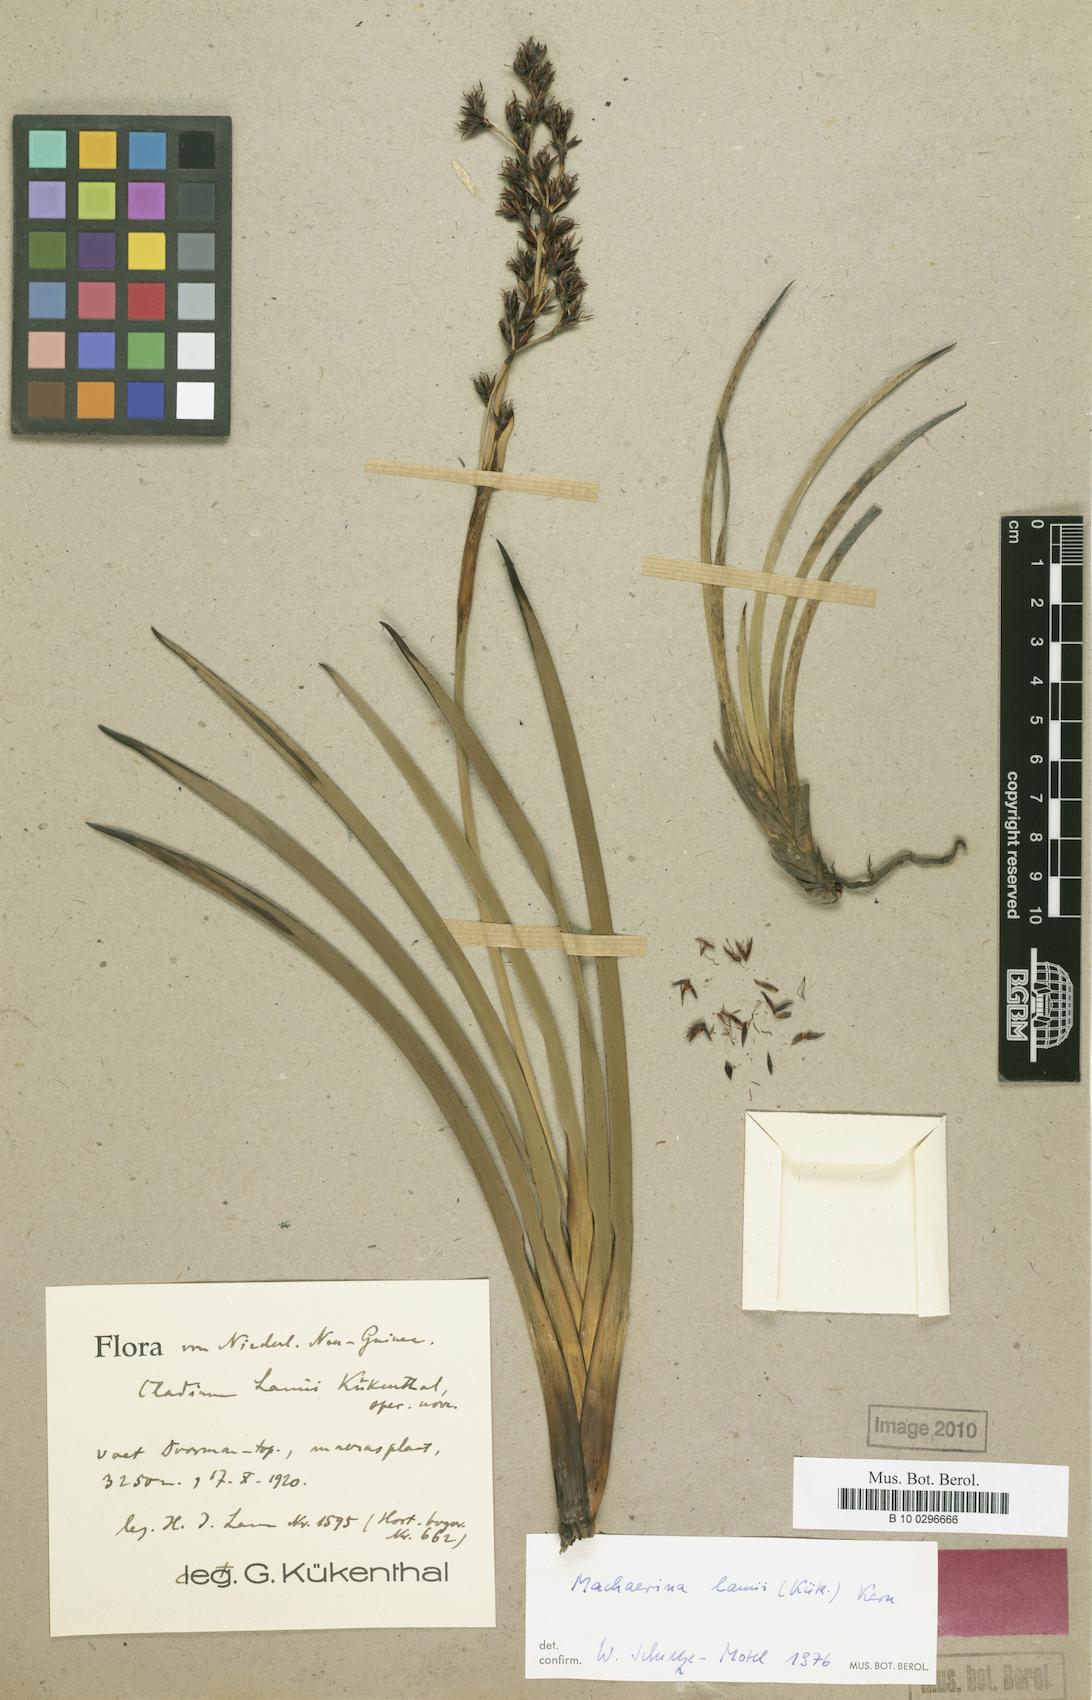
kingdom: Plantae
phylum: Tracheophyta
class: Liliopsida
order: Poales
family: Cyperaceae
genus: Machaerina
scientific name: Machaerina lamii
